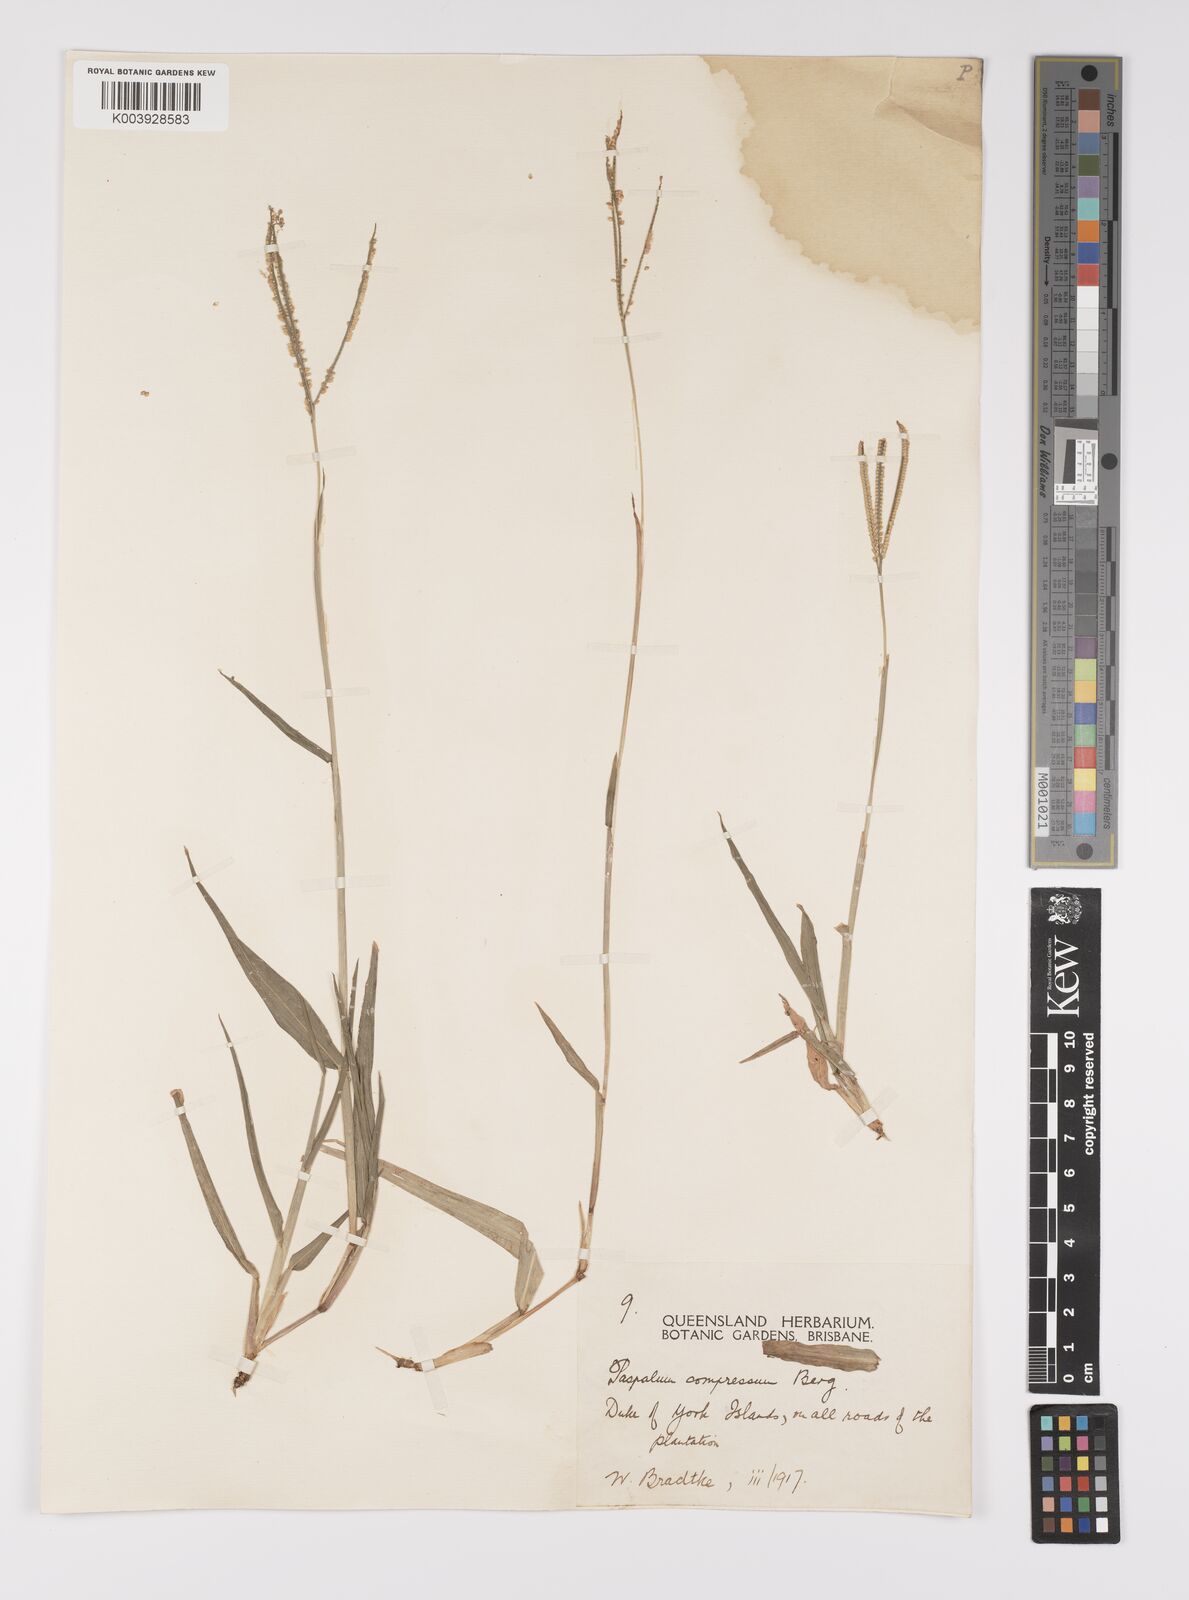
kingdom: Plantae
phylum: Tracheophyta
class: Liliopsida
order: Poales
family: Poaceae
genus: Paspalum
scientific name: Paspalum conjugatum
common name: Hilograss
